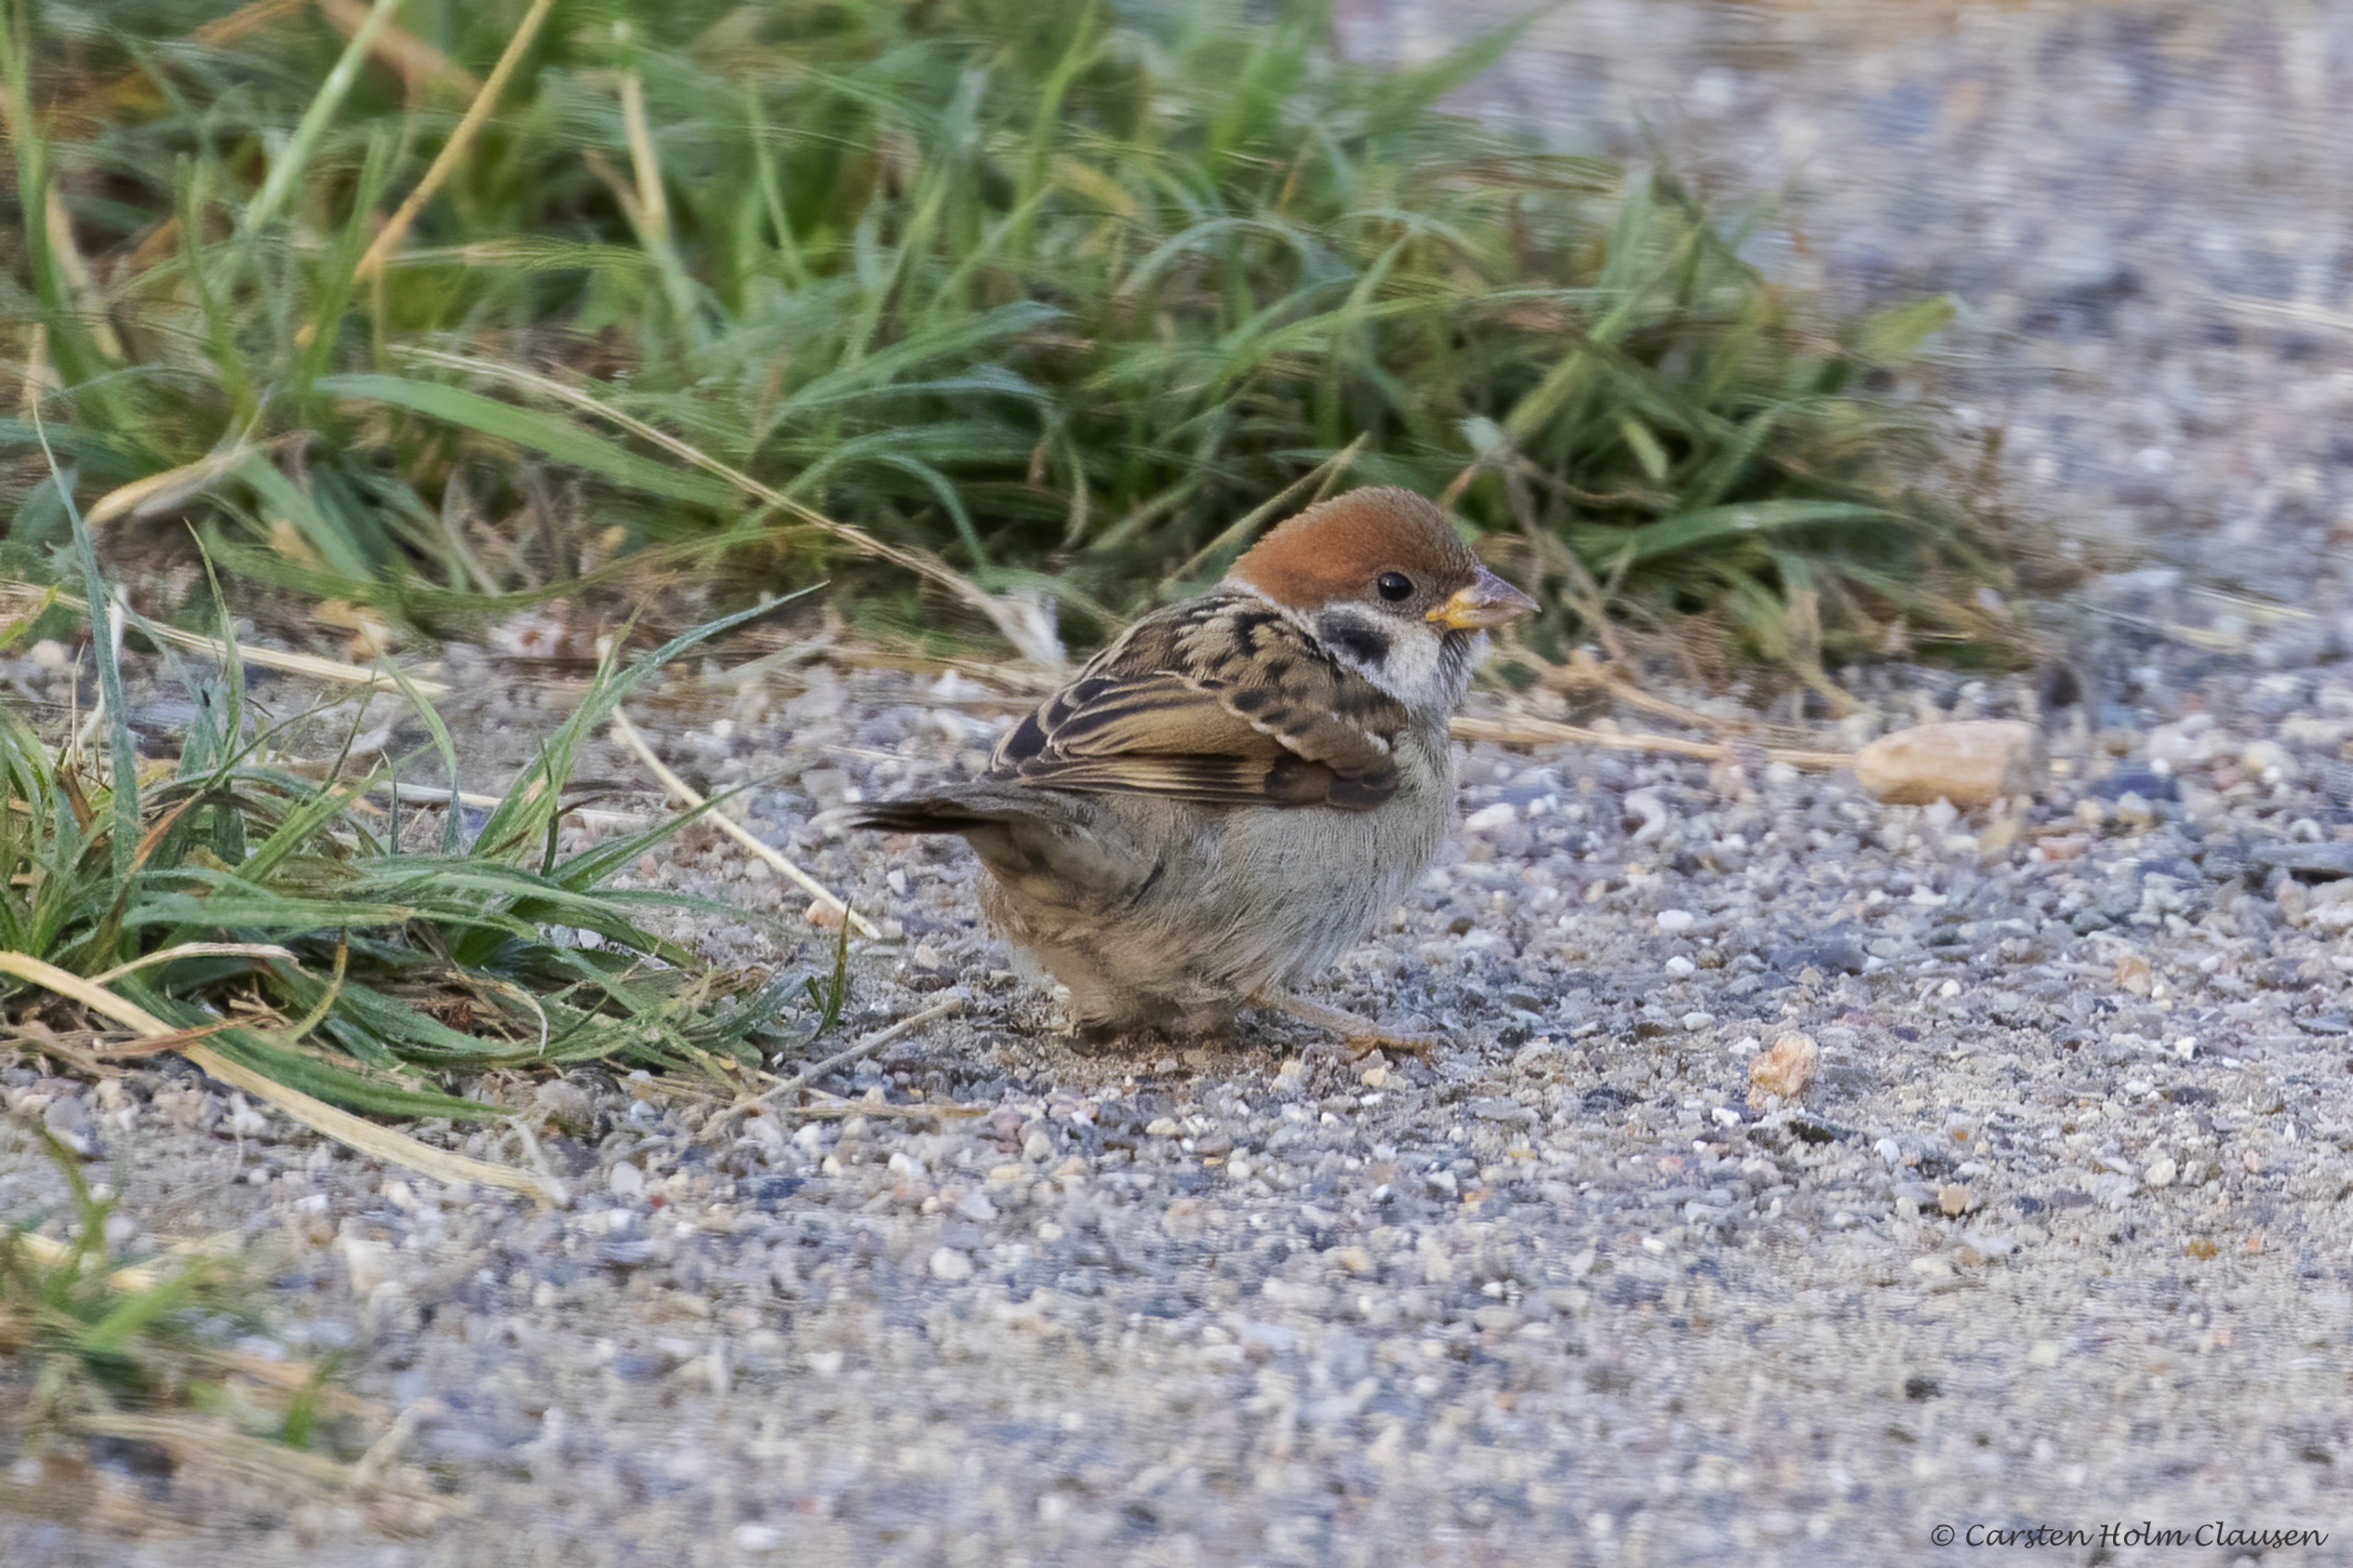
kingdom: Animalia
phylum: Chordata
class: Aves
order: Passeriformes
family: Passeridae
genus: Passer
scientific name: Passer montanus
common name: Skovspurv
